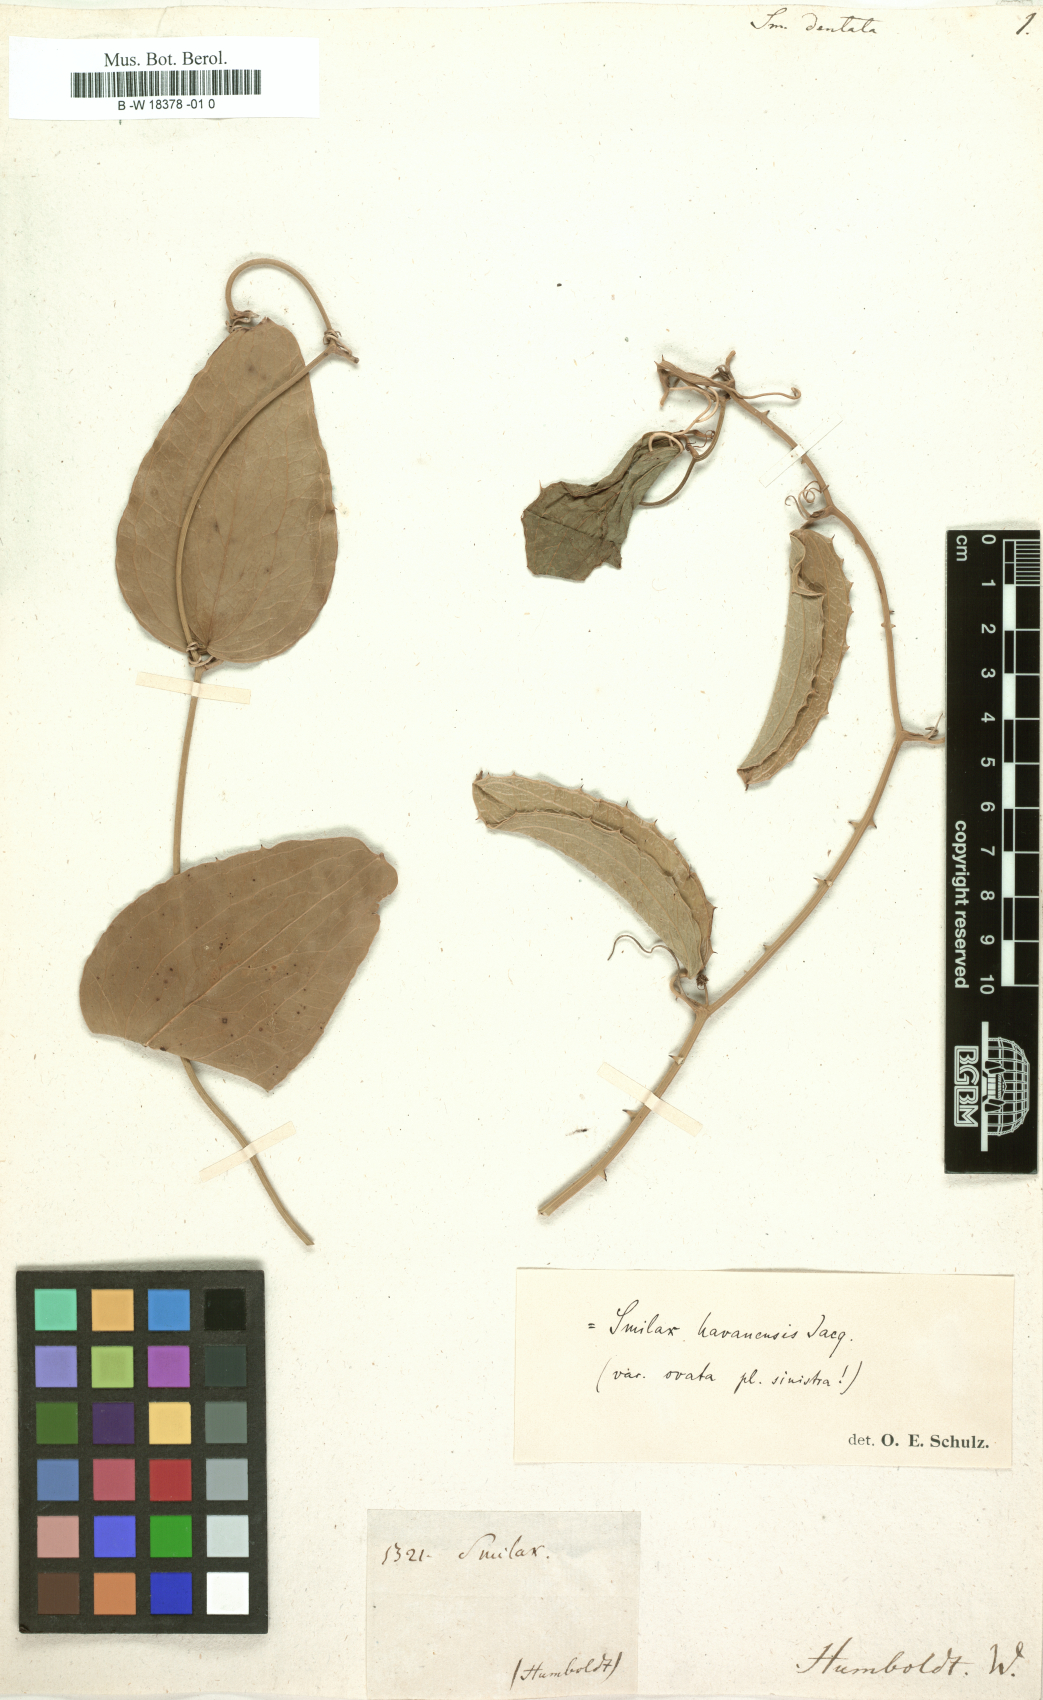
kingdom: Plantae
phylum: Tracheophyta
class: Liliopsida
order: Liliales
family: Smilacaceae
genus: Smilax
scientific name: Smilax havanensis
